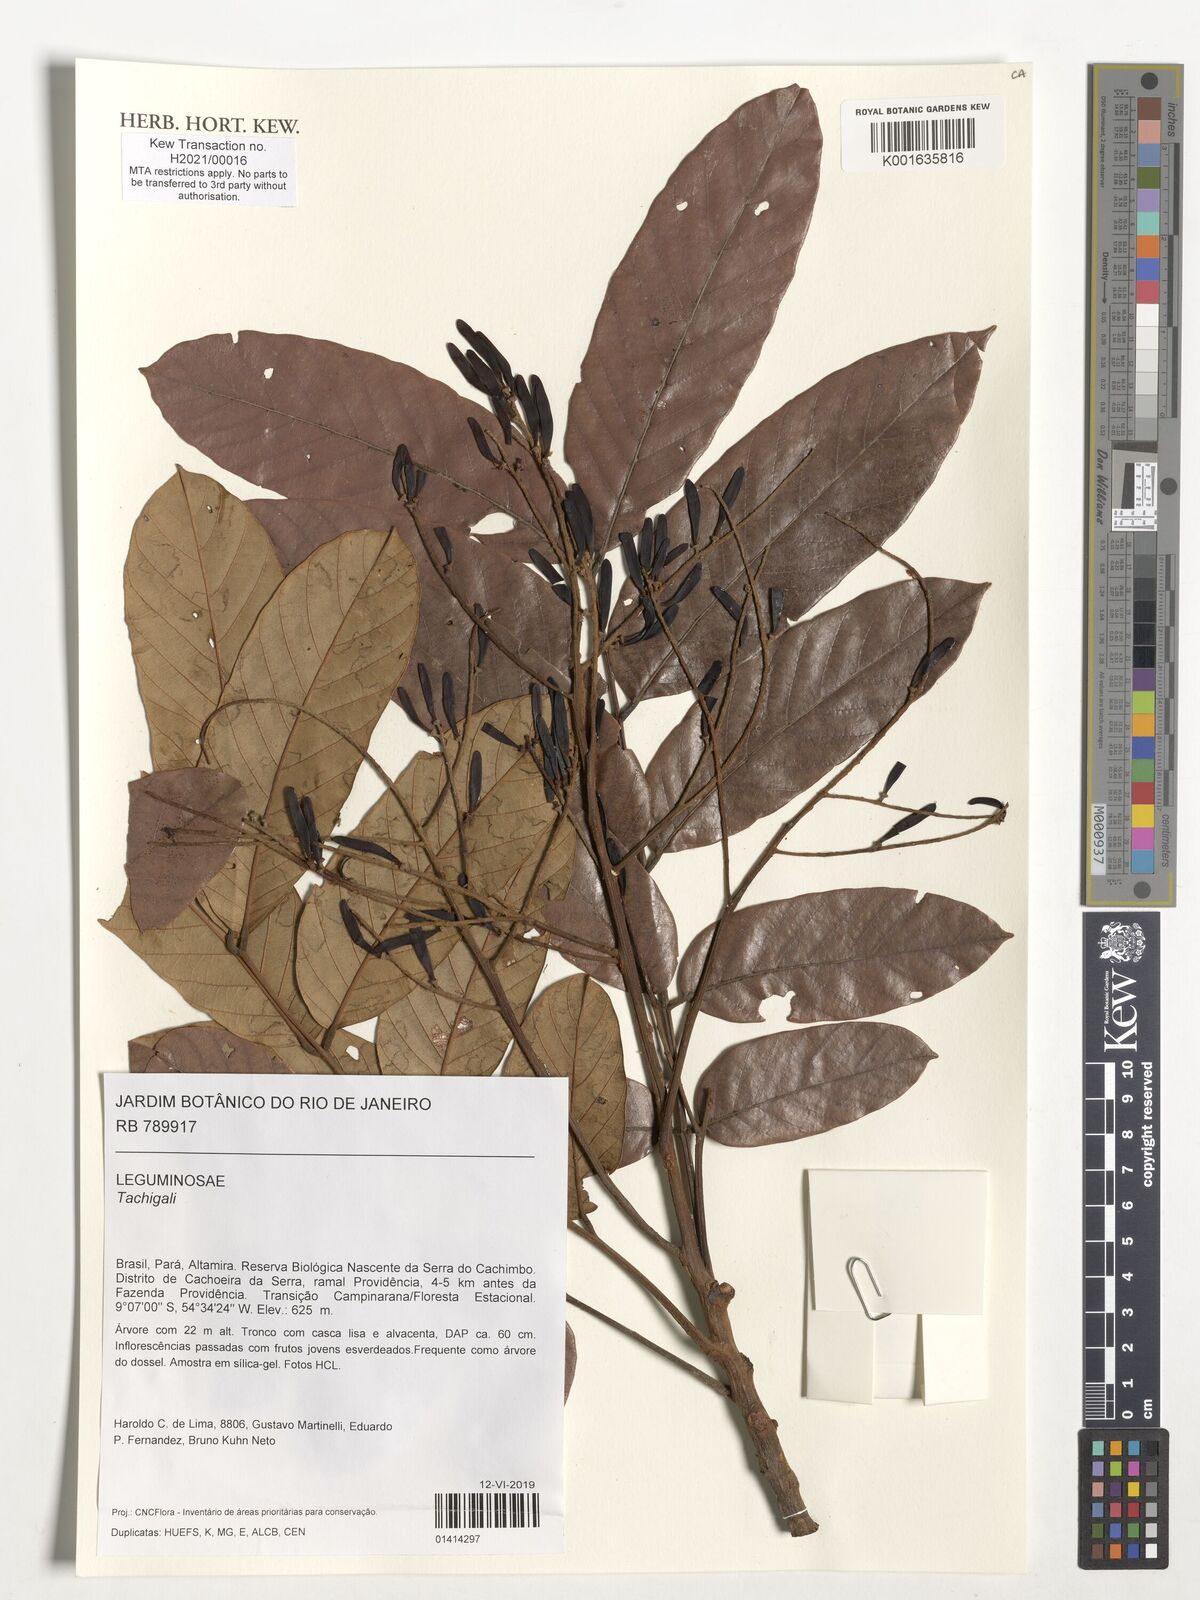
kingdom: Plantae
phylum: Tracheophyta
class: Magnoliopsida
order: Fabales
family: Fabaceae
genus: Tachigali
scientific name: Tachigali
